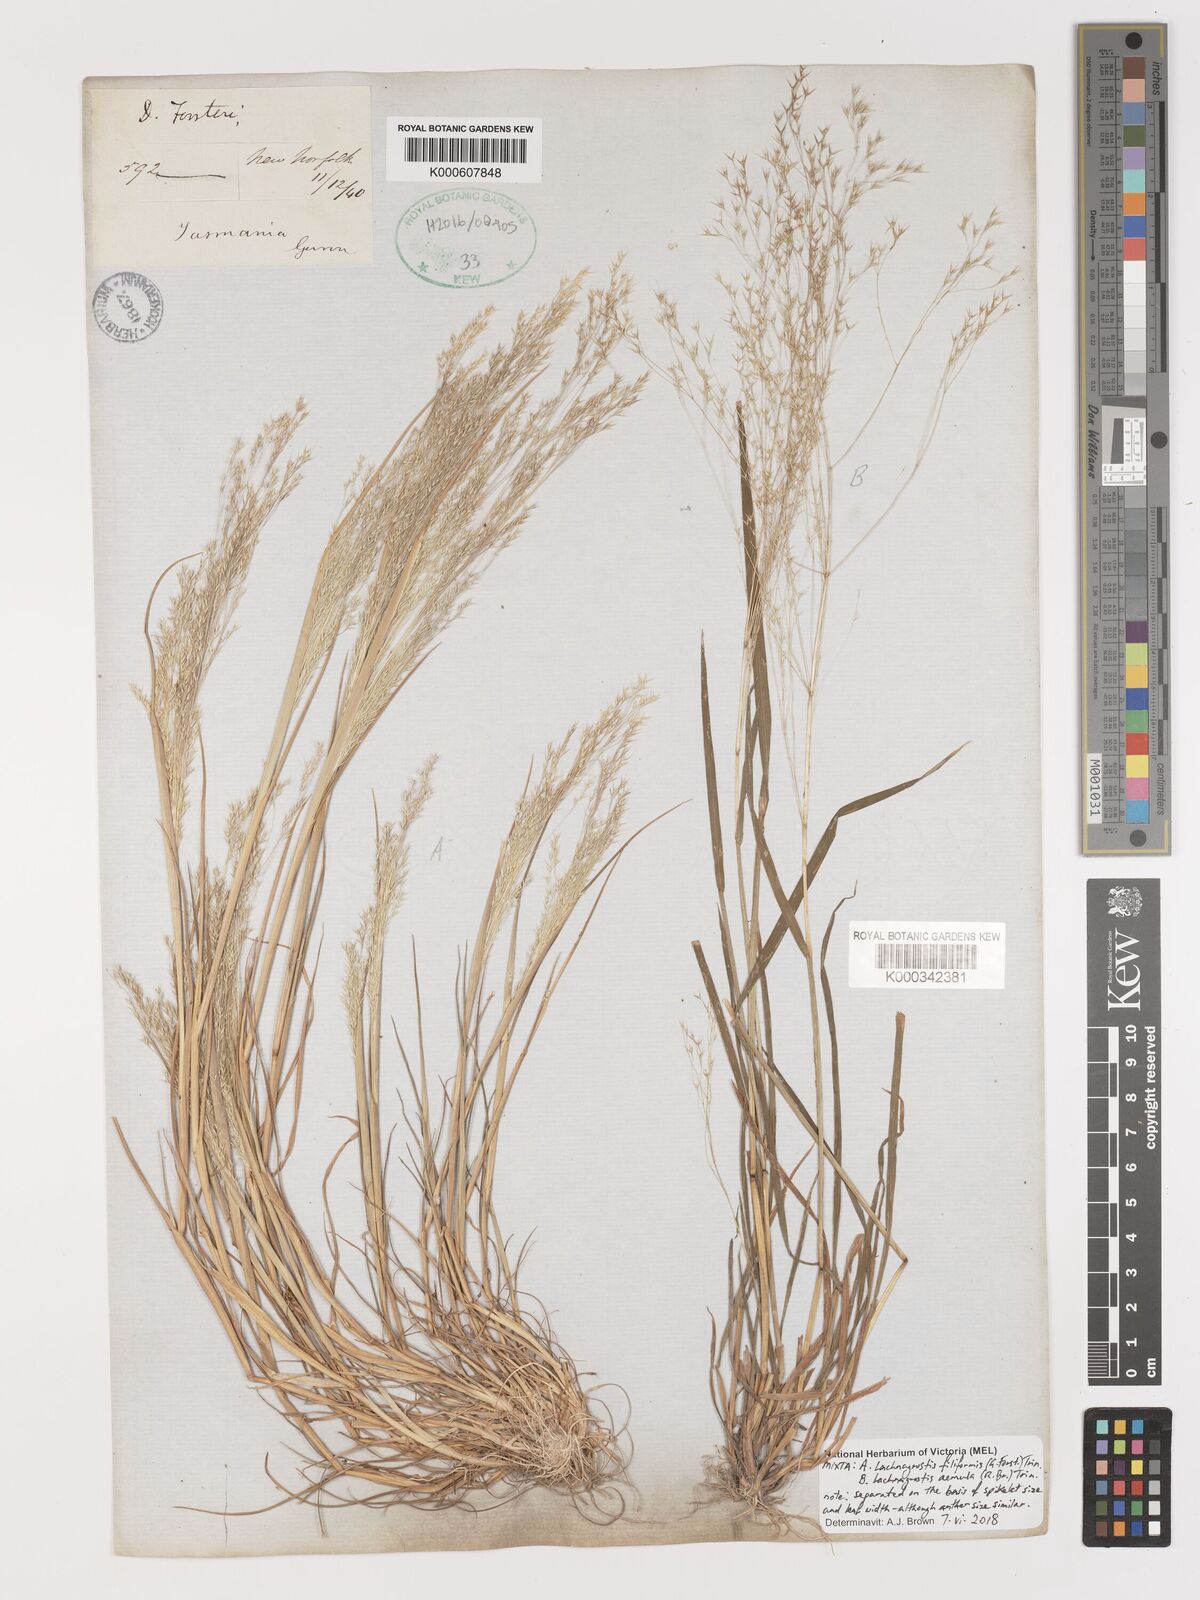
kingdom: Plantae
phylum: Tracheophyta
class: Liliopsida
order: Poales
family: Poaceae
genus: Lachnagrostis
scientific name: Lachnagrostis aemula
